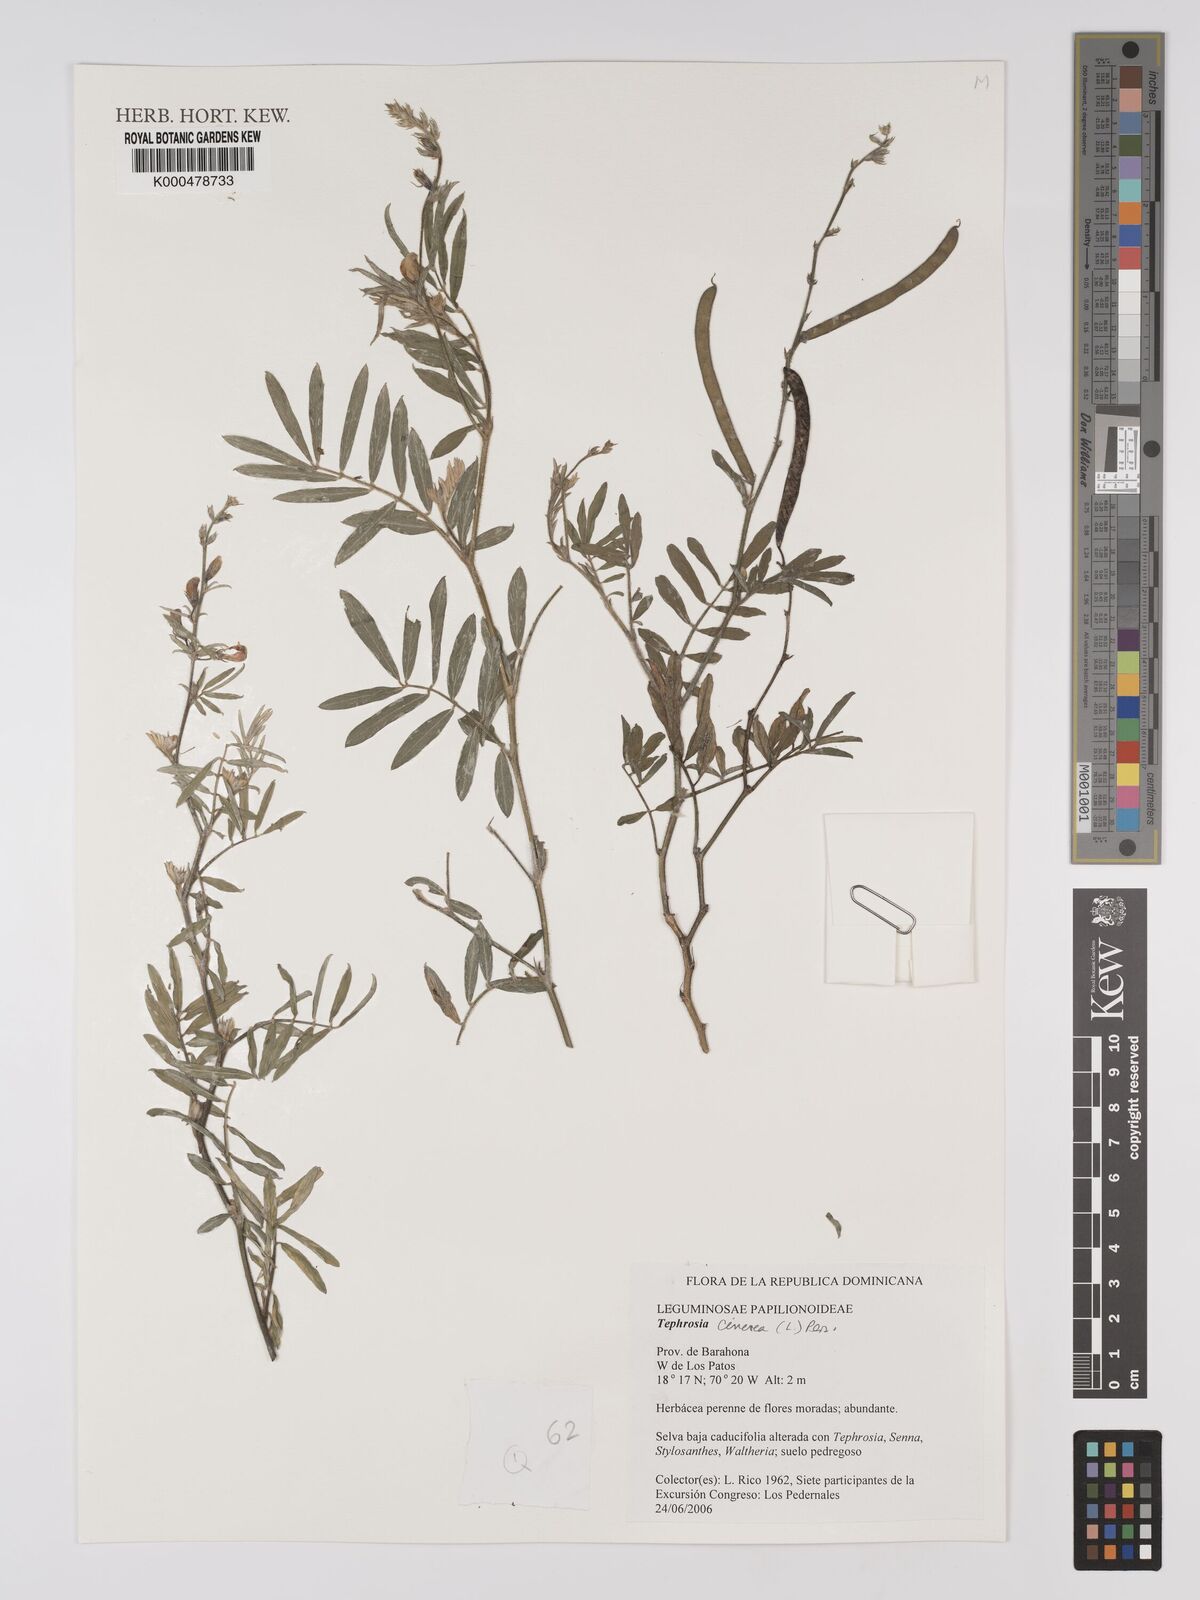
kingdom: Plantae
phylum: Tracheophyta
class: Magnoliopsida
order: Fabales
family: Fabaceae
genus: Tephrosia
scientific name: Tephrosia cinerea
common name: Ashen hoarypea
